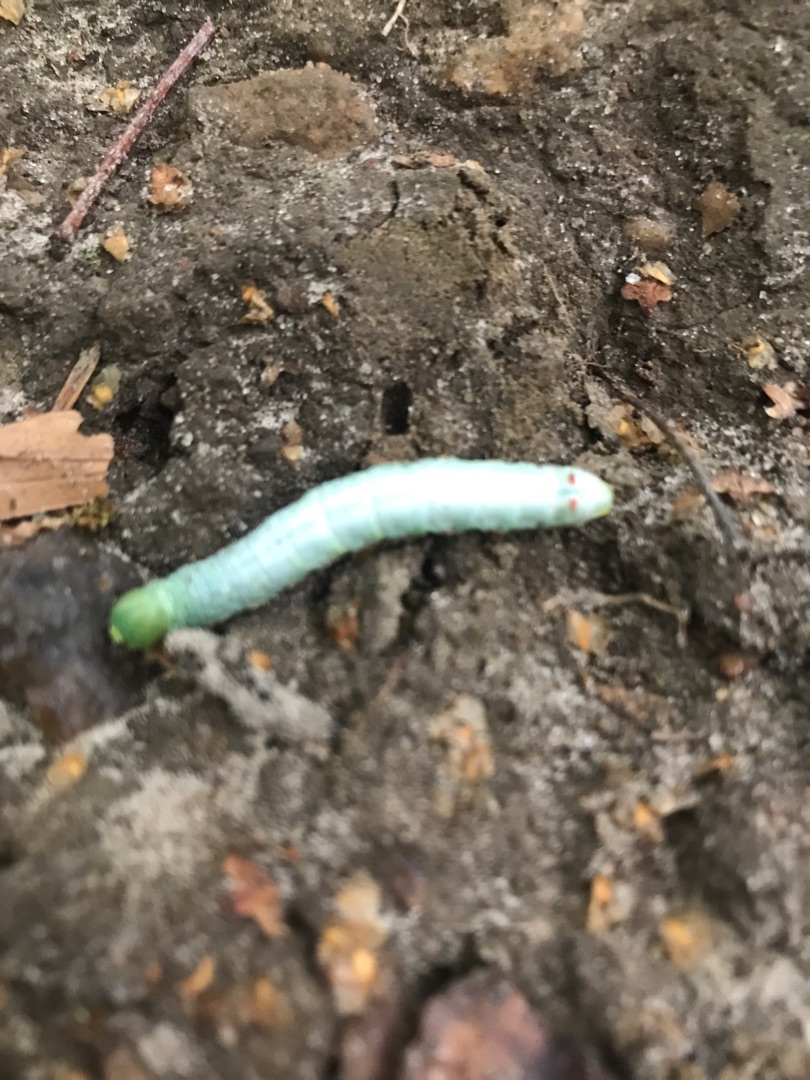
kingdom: Animalia
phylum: Arthropoda
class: Insecta
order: Lepidoptera
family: Notodontidae
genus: Ptilodon
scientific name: Ptilodon capucina
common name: Kamelspinder
